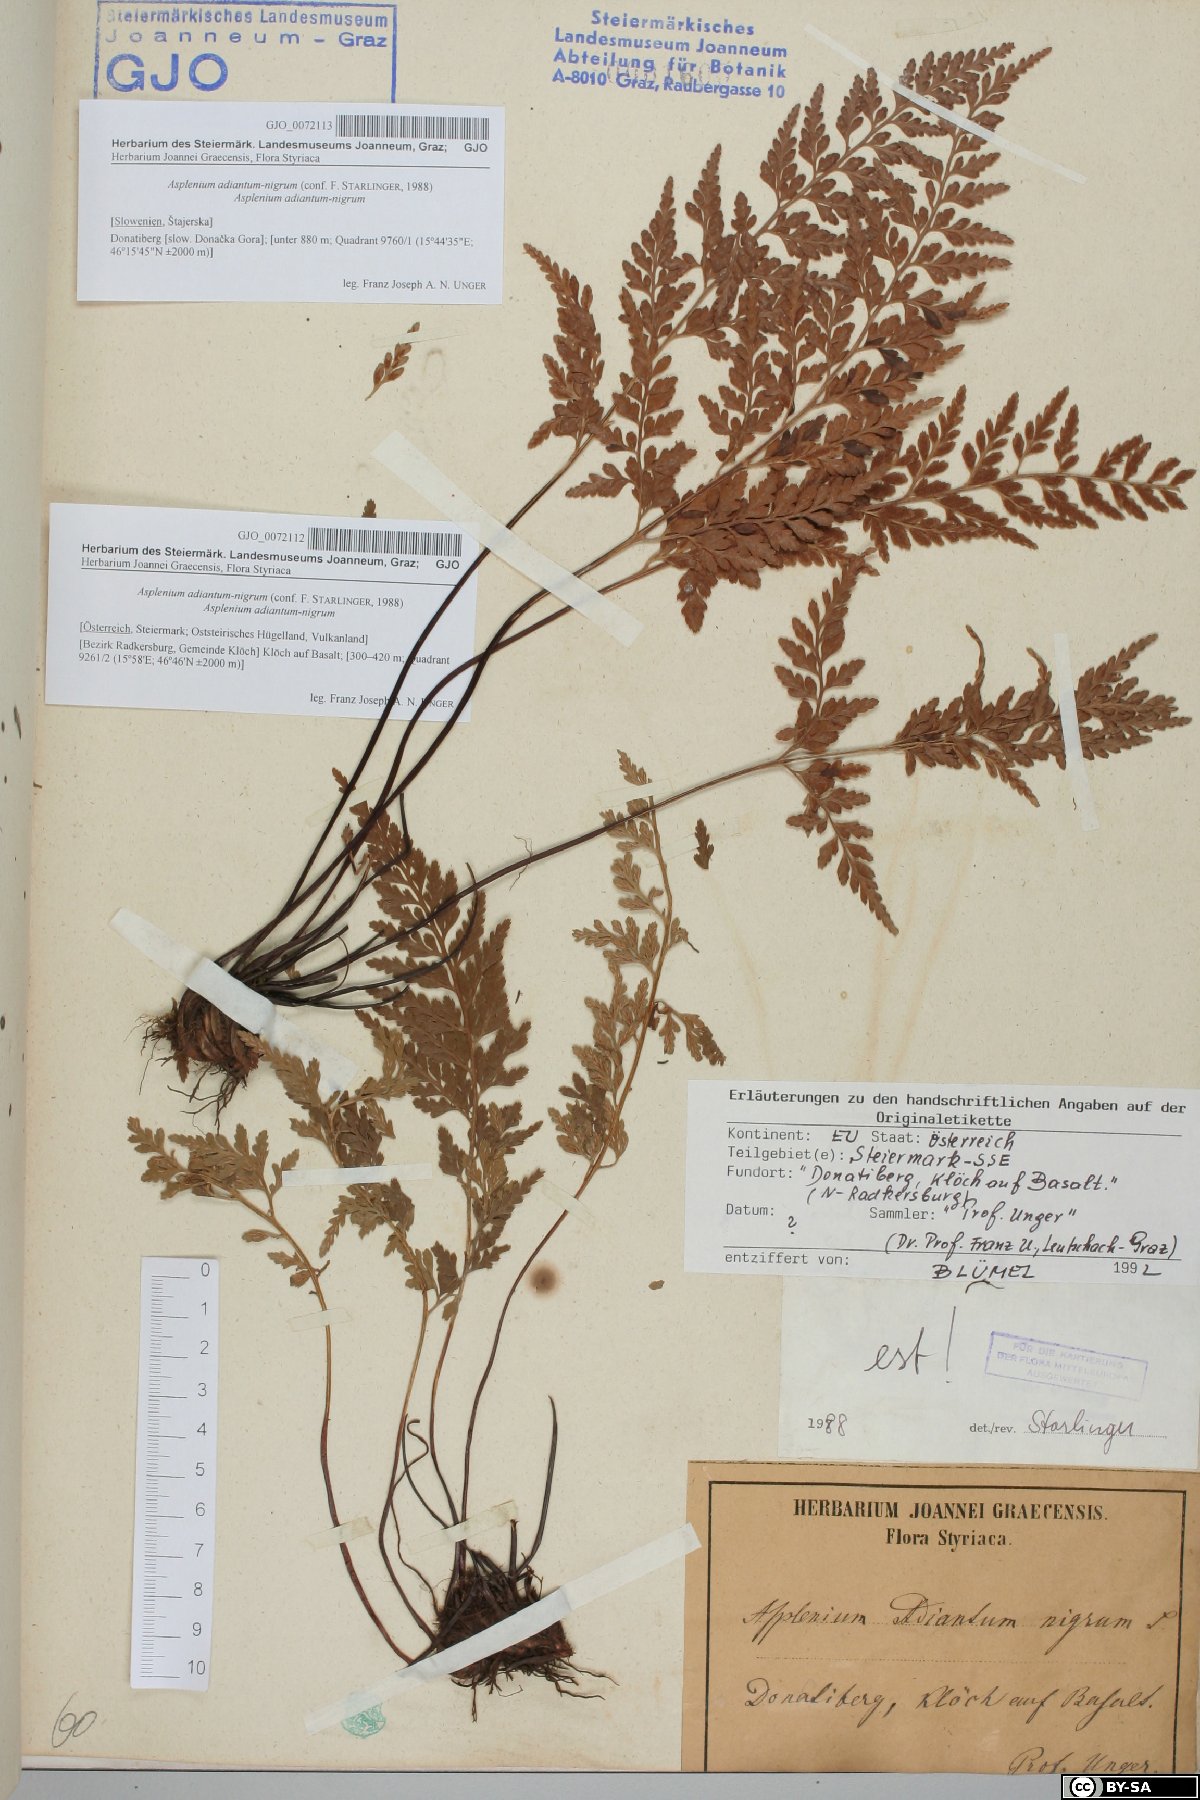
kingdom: Plantae
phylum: Tracheophyta
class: Polypodiopsida
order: Polypodiales
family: Aspleniaceae
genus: Asplenium
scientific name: Asplenium adiantum-nigrum
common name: Black spleenwort
